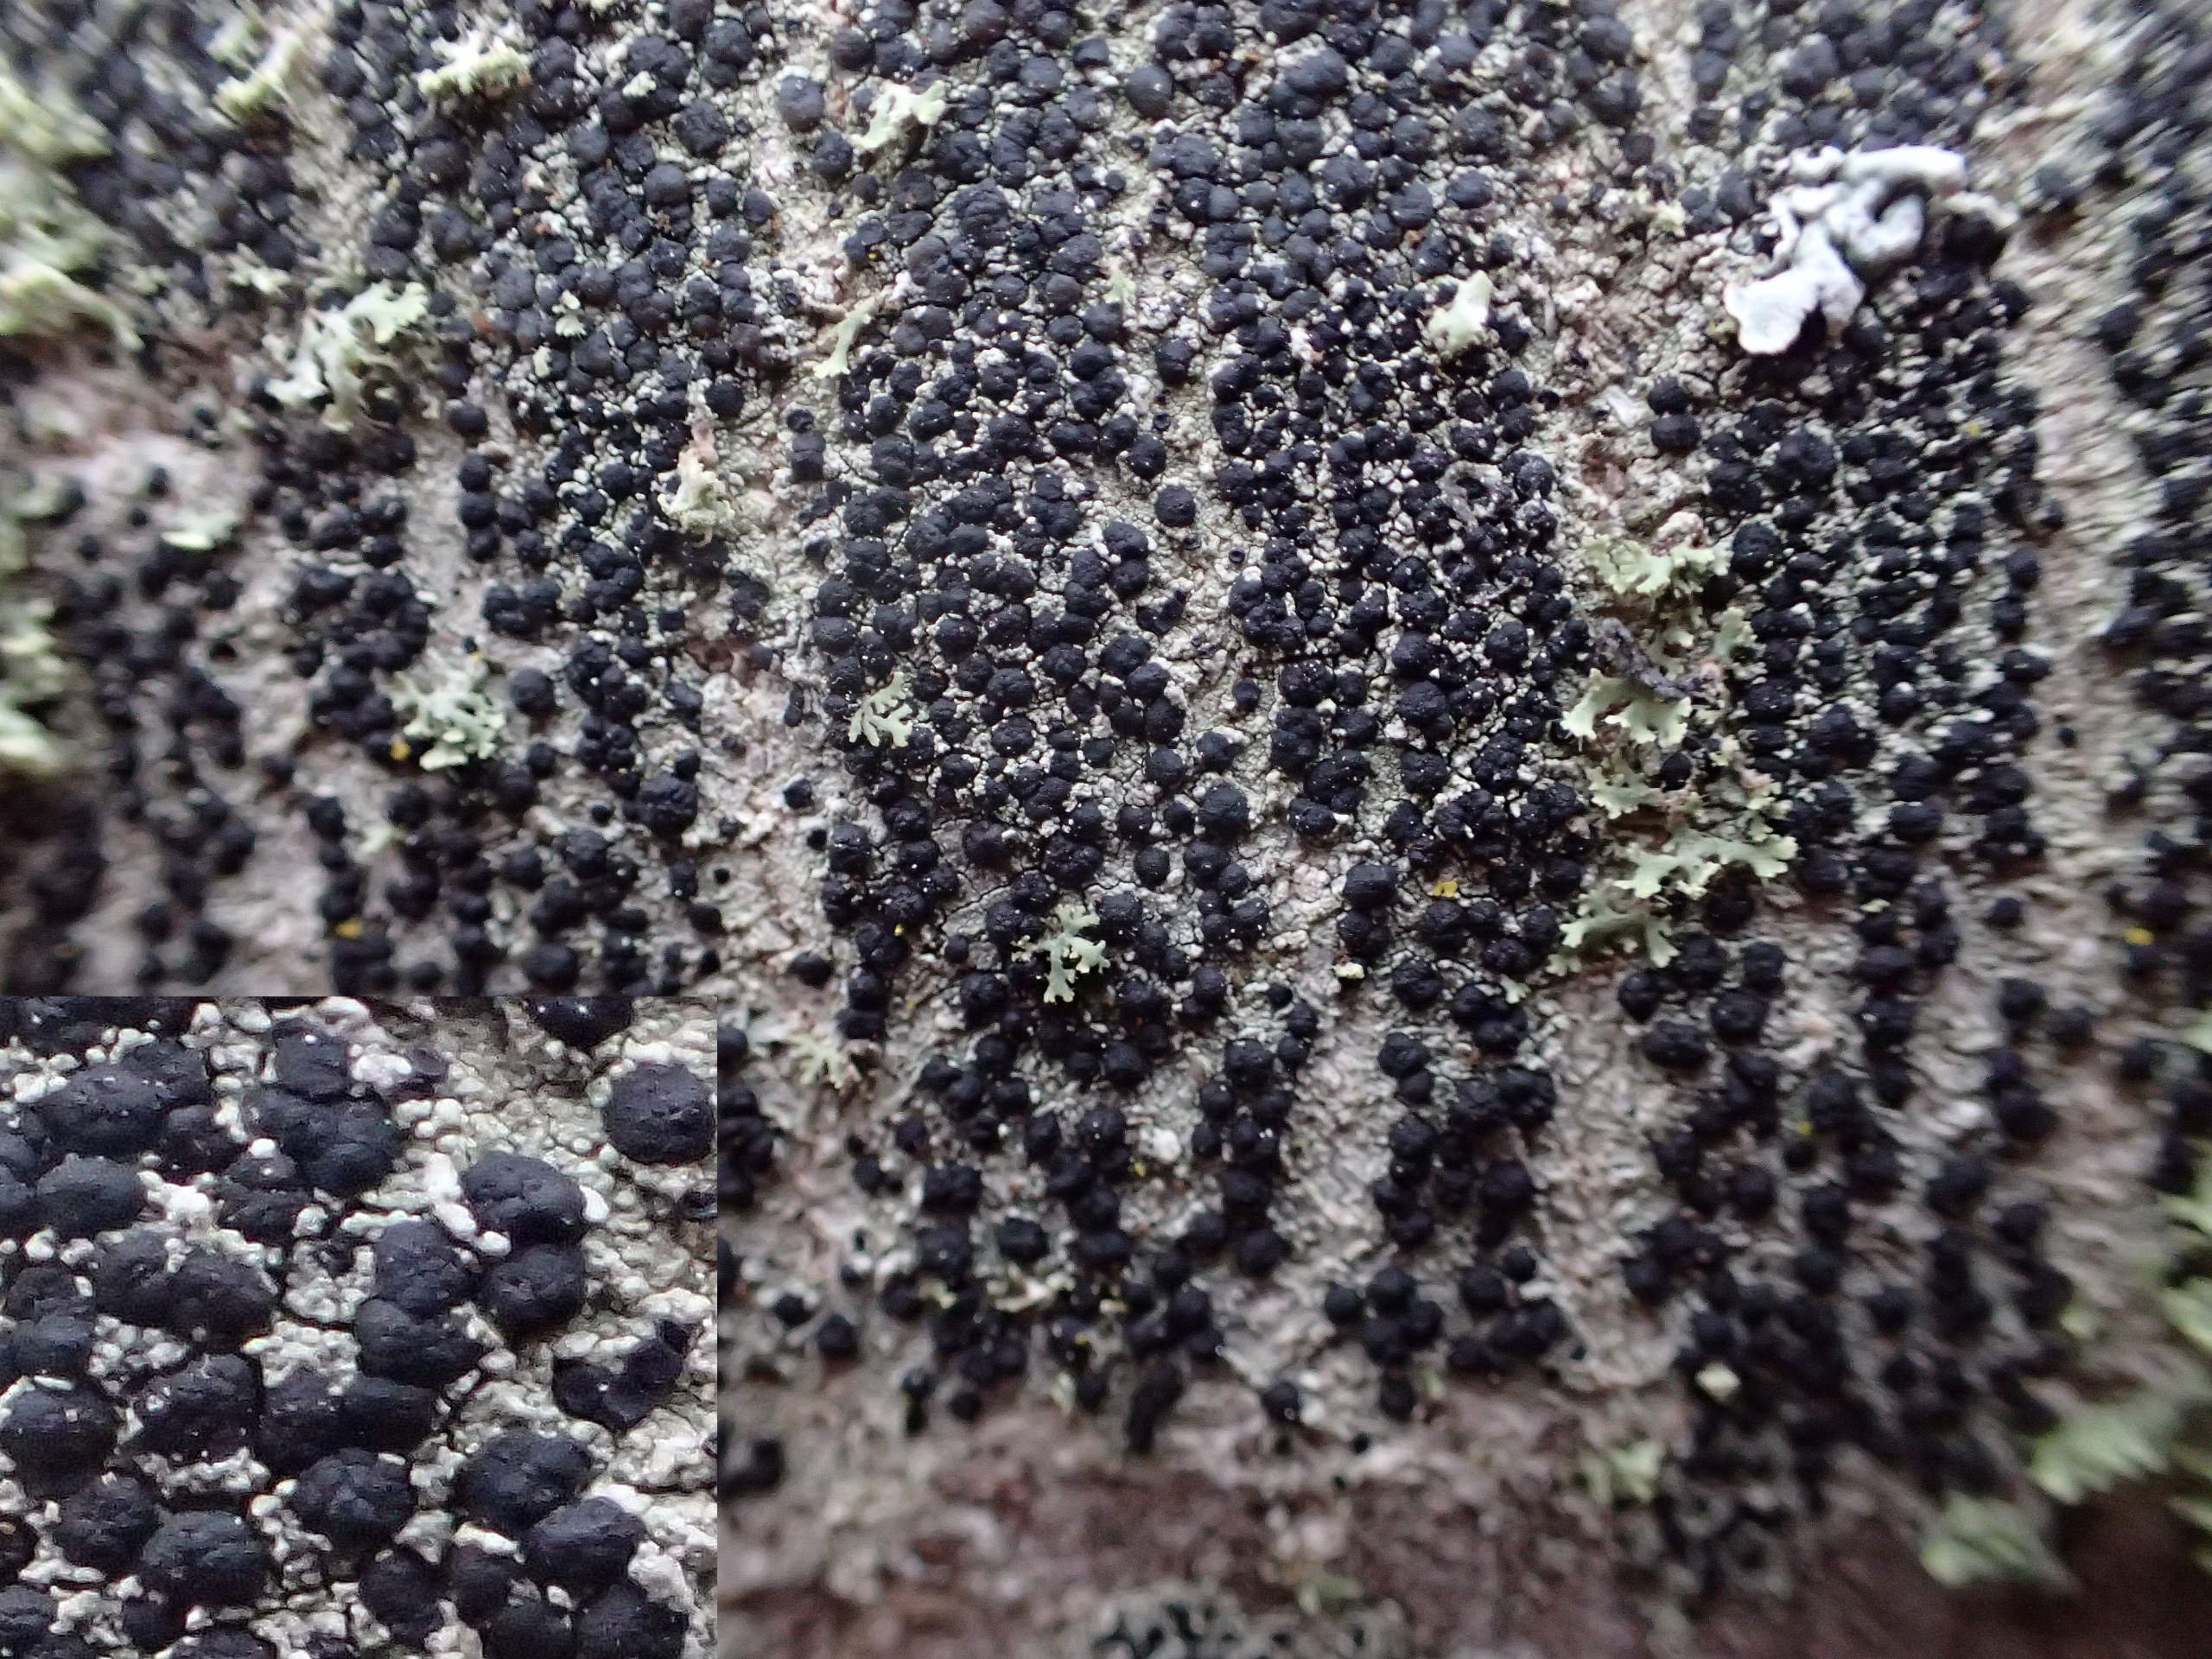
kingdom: Fungi
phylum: Ascomycota
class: Lecanoromycetes
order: Lecanorales
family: Lecanoraceae
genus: Lecidella
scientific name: Lecidella elaeochroma
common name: Grågrøn skivelav
